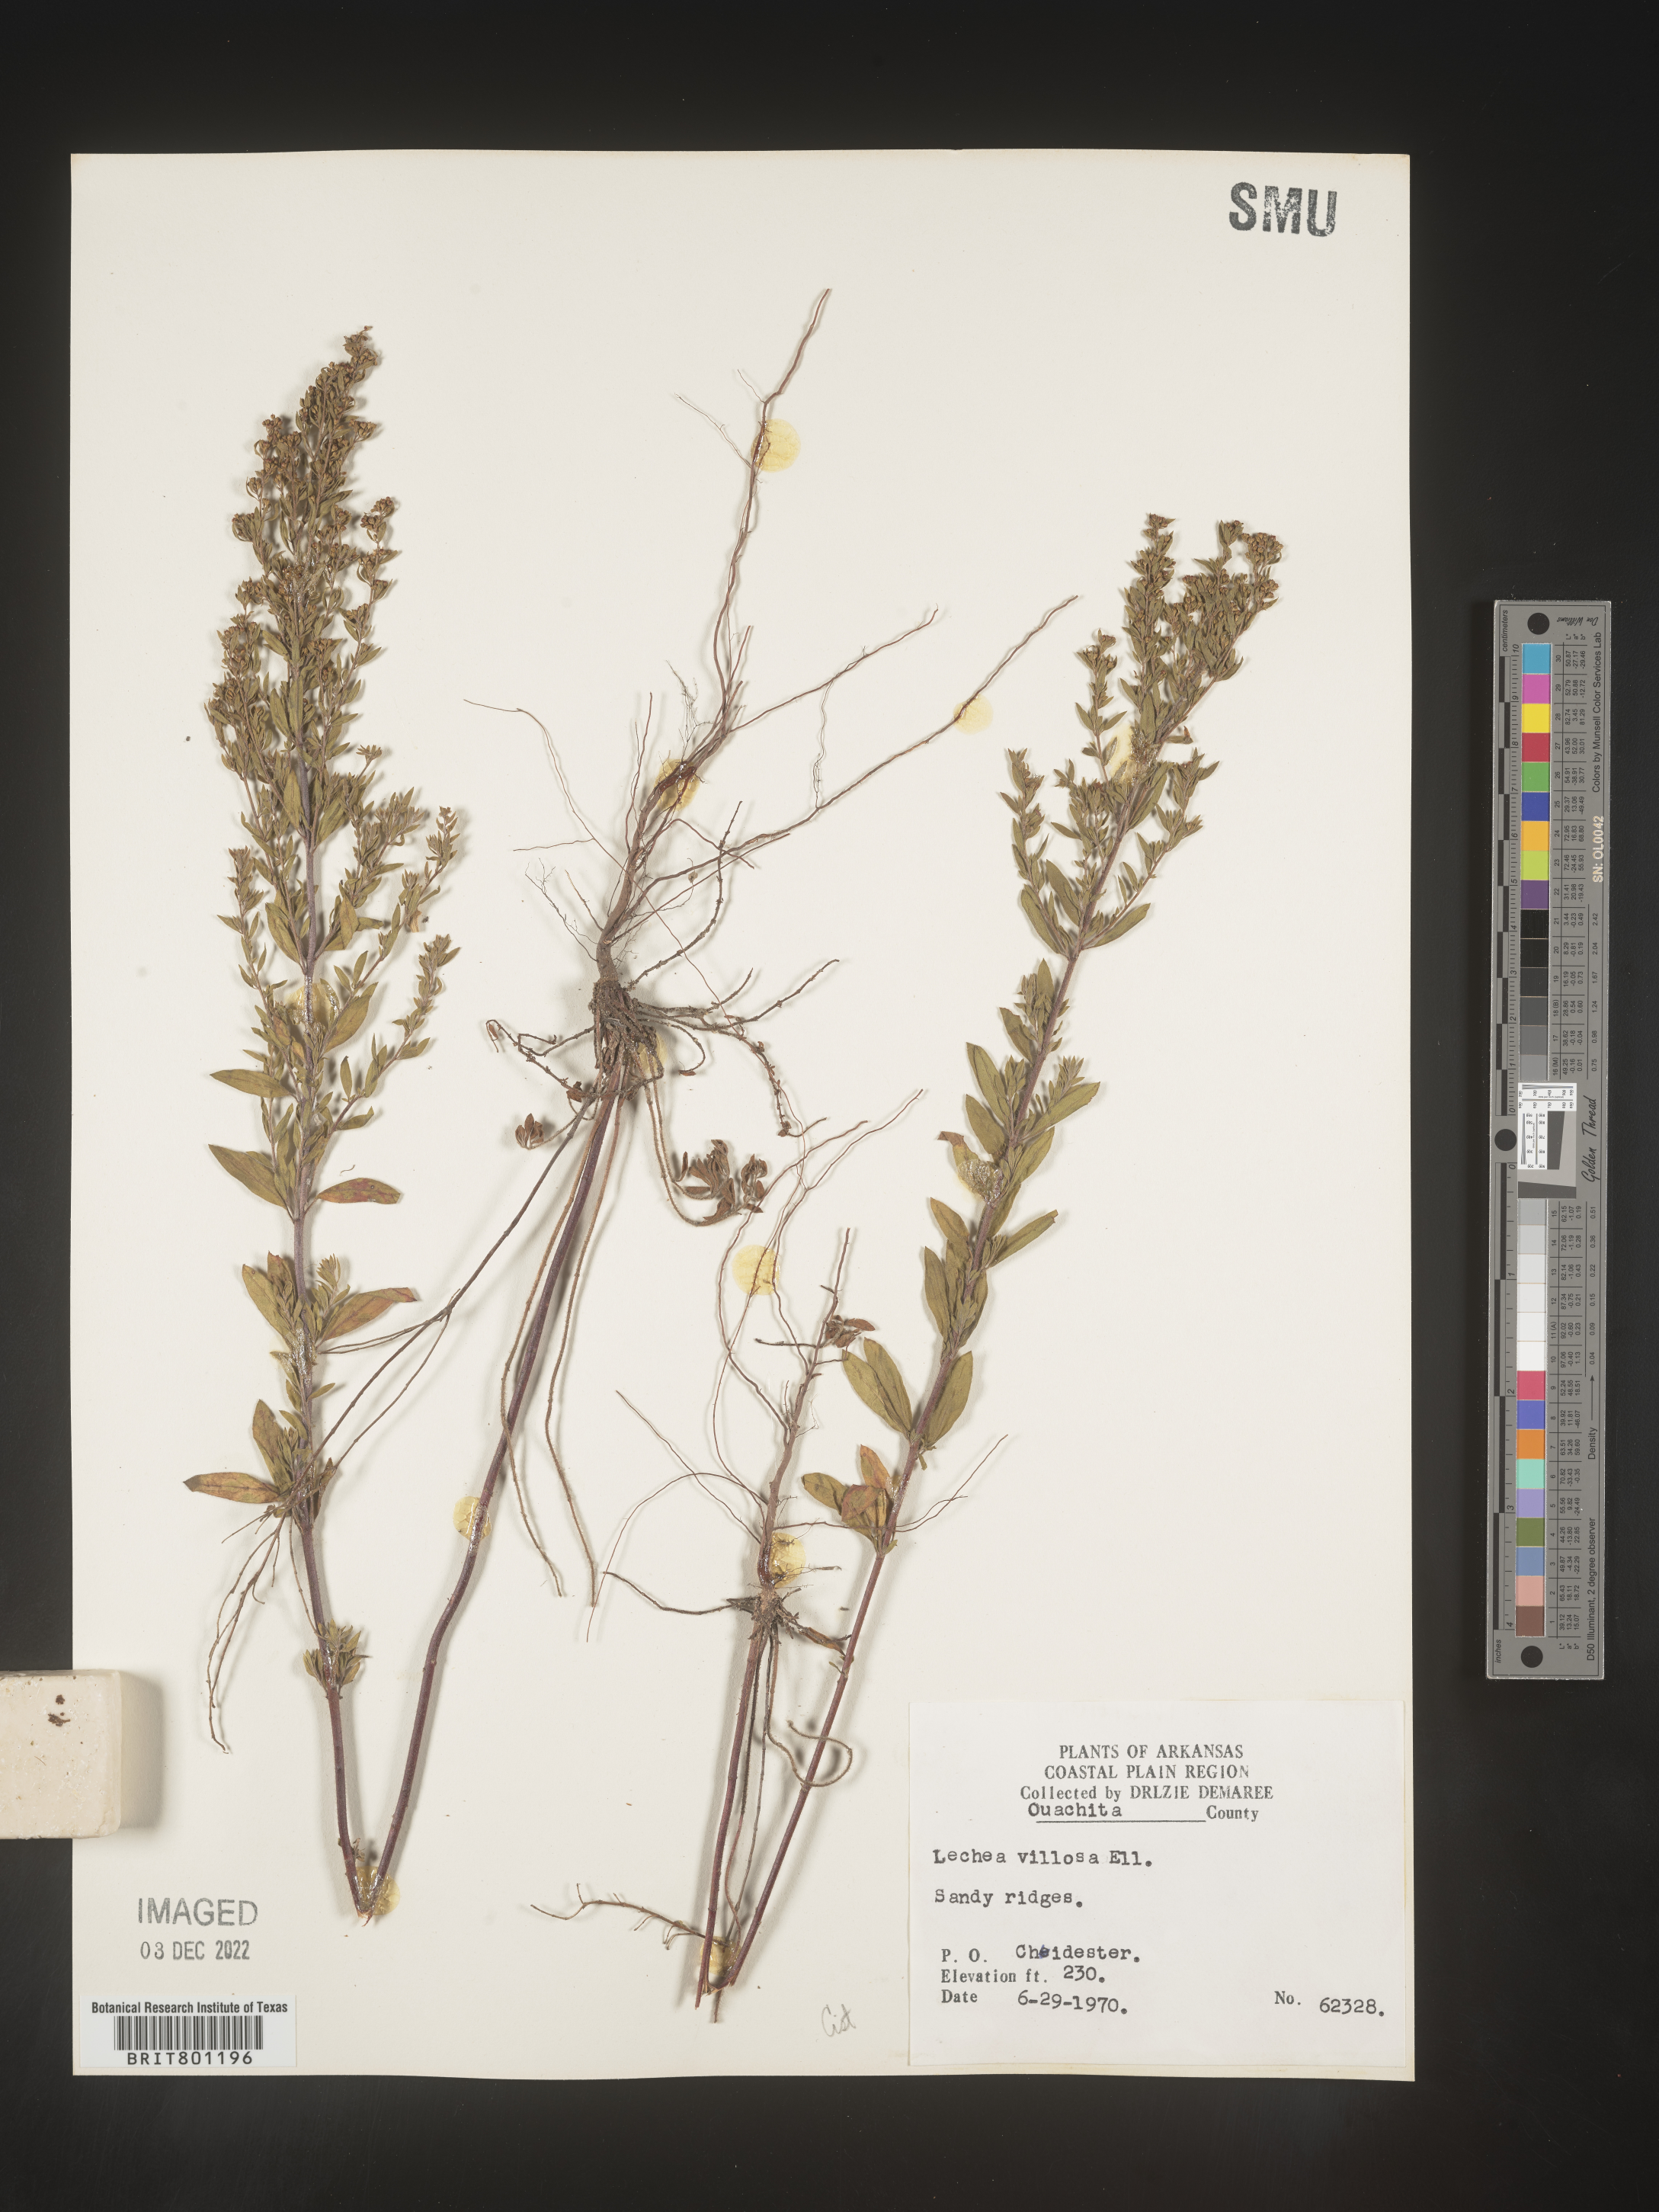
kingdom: Plantae
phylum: Tracheophyta
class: Magnoliopsida
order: Malvales
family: Cistaceae
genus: Lechea
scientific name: Lechea mucronata
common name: Hairy pinweed
